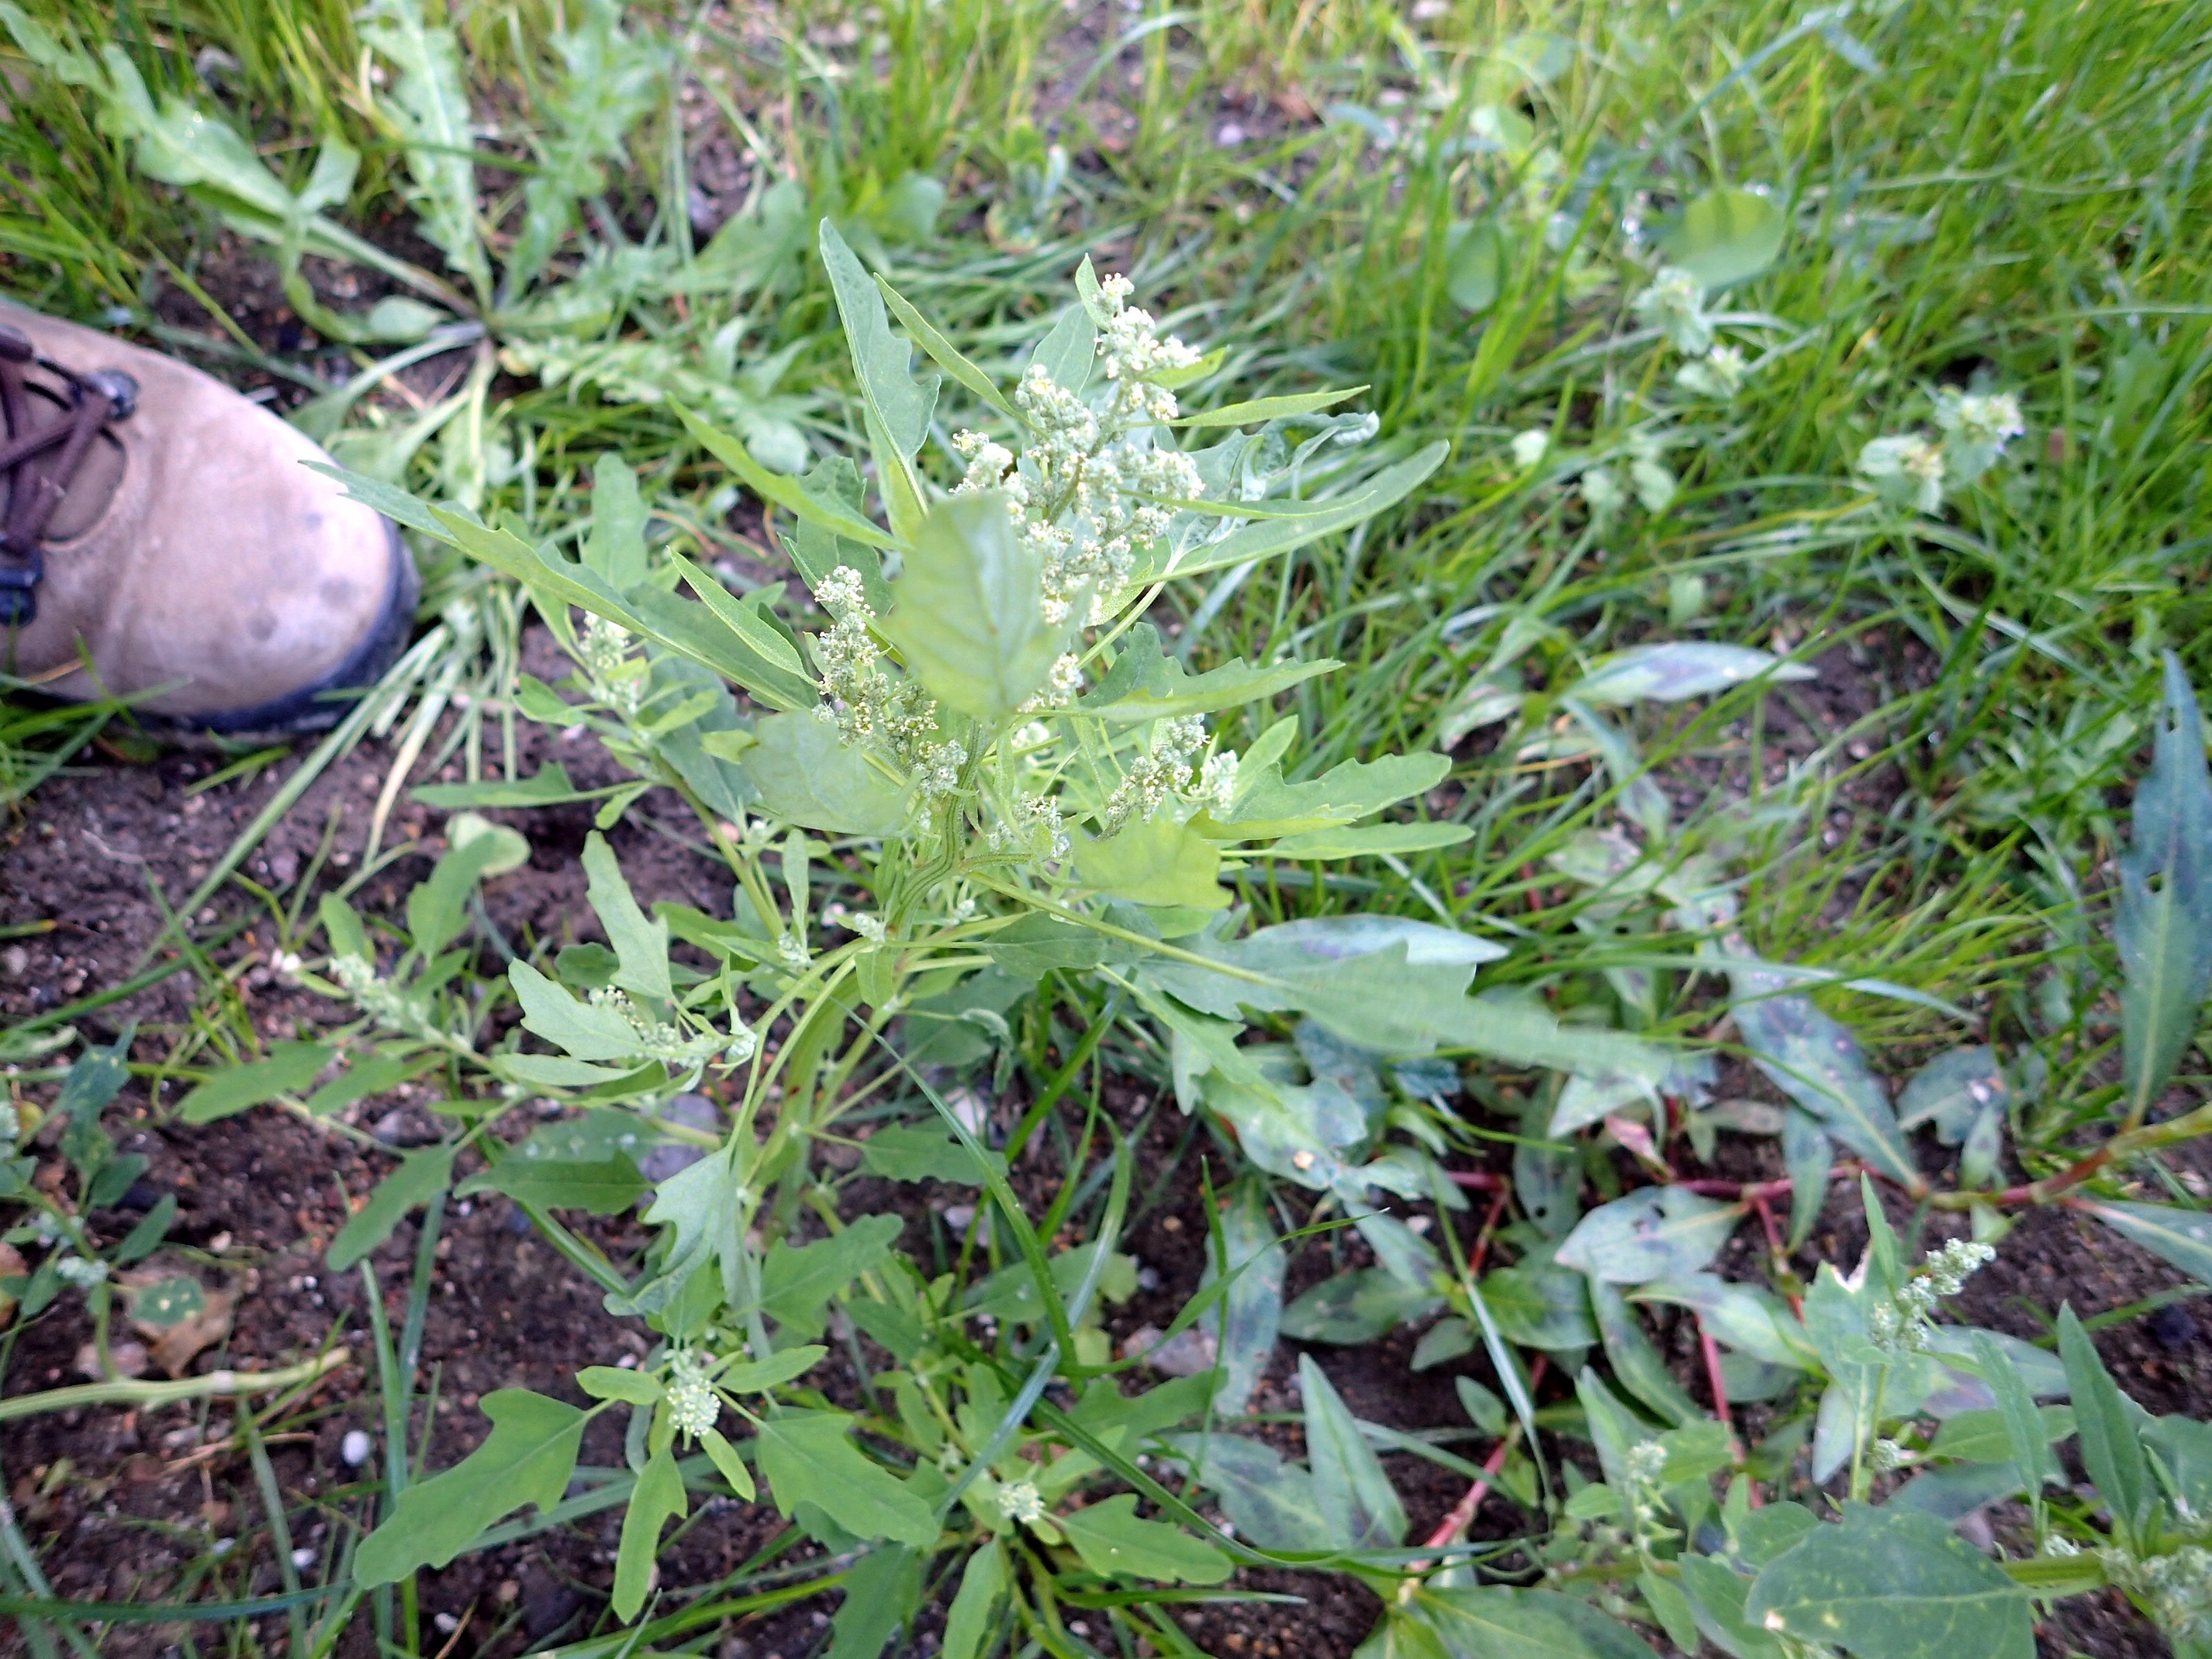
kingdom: Plantae
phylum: Tracheophyta
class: Magnoliopsida
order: Caryophyllales
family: Amaranthaceae
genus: Chenopodium
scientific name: Chenopodium ficifolium
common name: Figenbladet gåsefod
